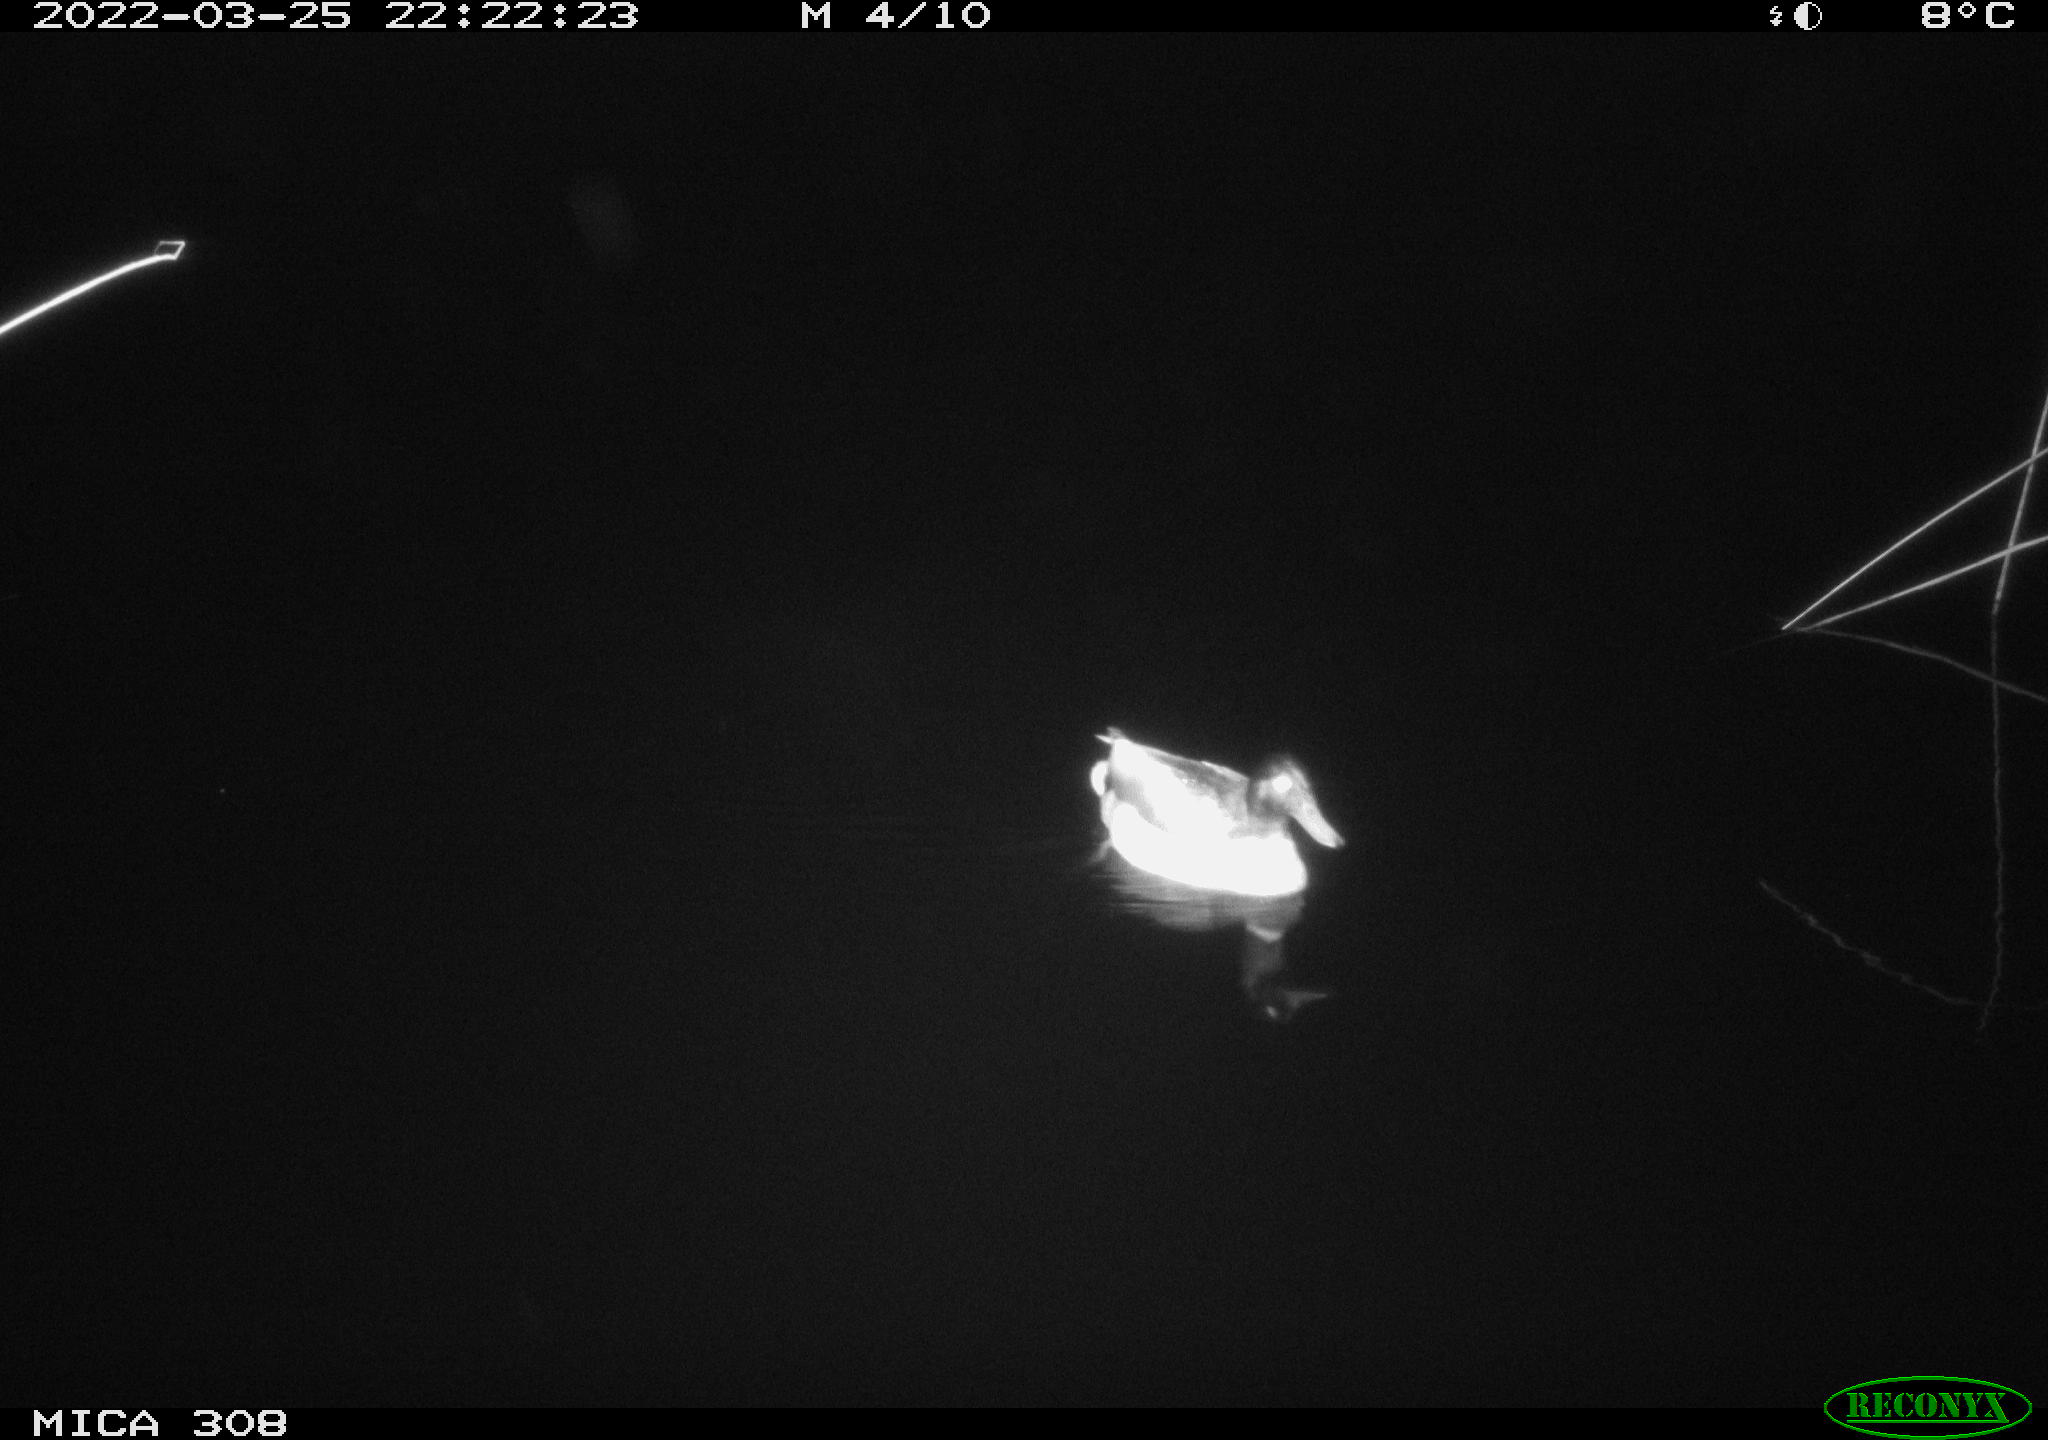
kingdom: Animalia
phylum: Chordata
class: Aves
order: Anseriformes
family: Anatidae
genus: Anas
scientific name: Anas platyrhynchos
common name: Mallard
